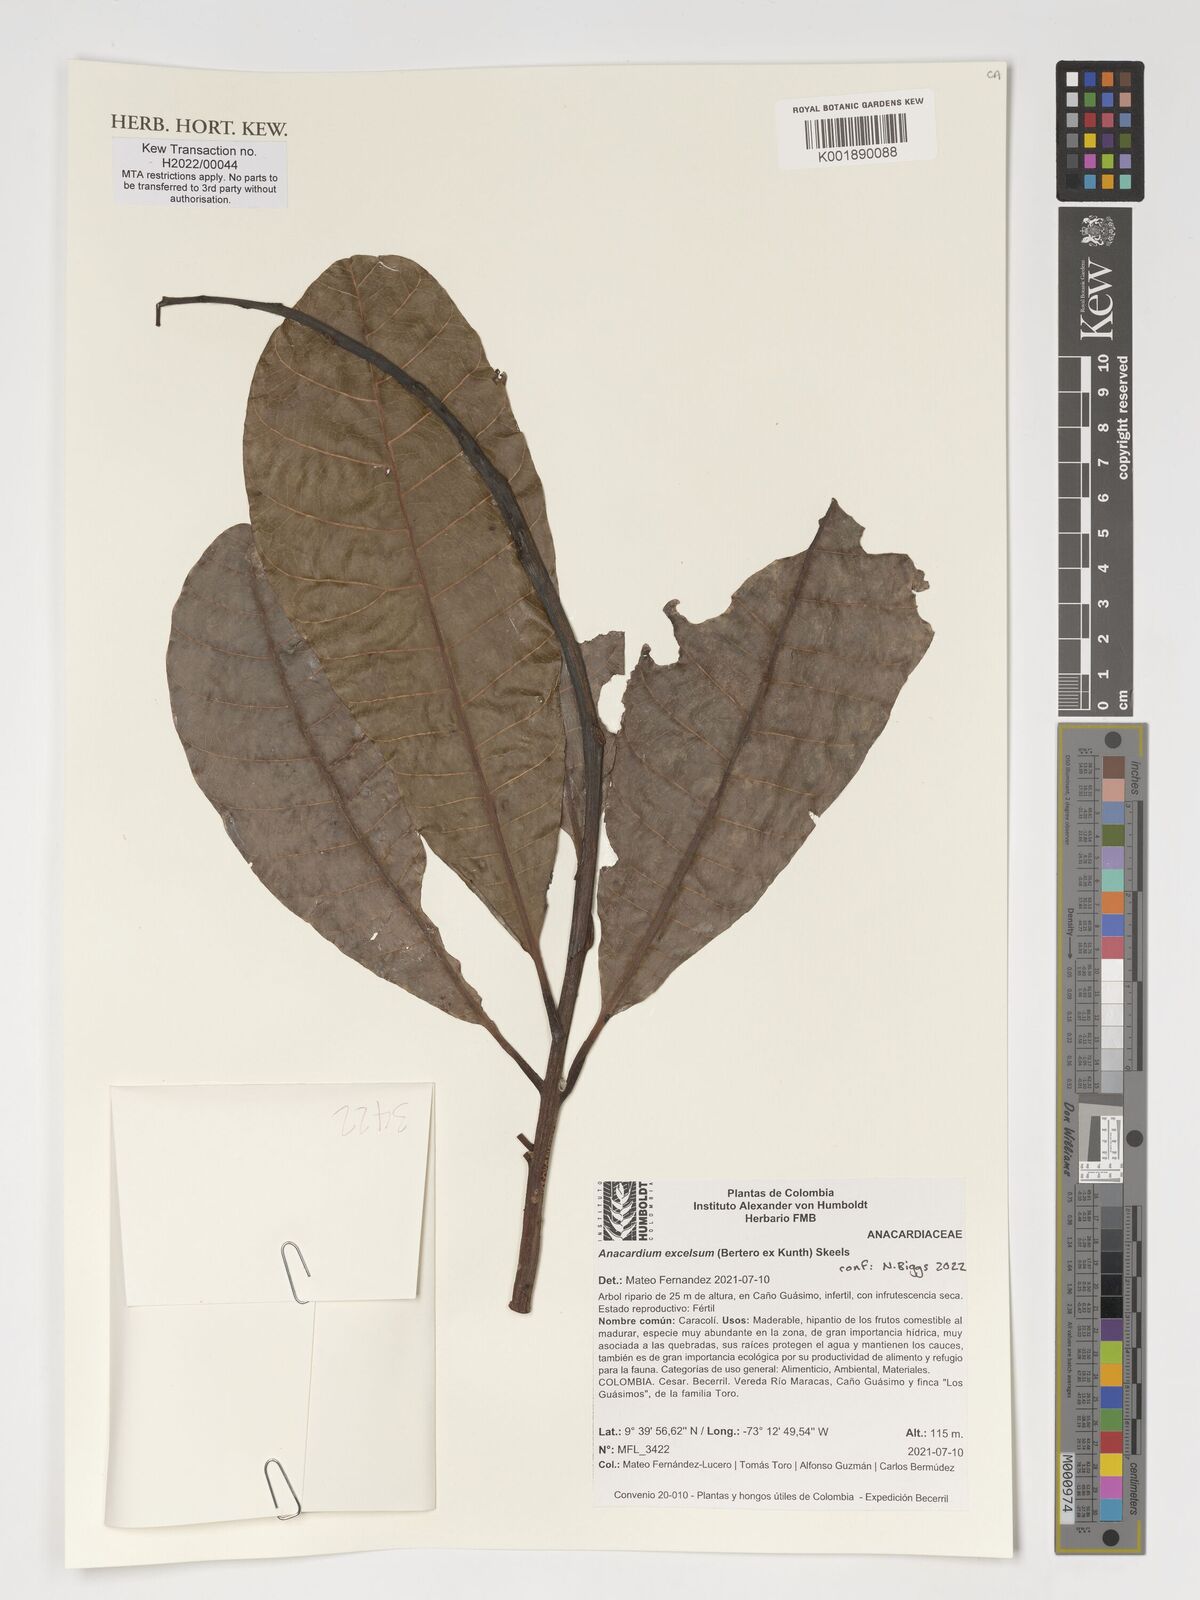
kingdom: Plantae
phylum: Tracheophyta
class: Magnoliopsida
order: Sapindales
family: Anacardiaceae
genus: Anacardium
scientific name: Anacardium excelsum
